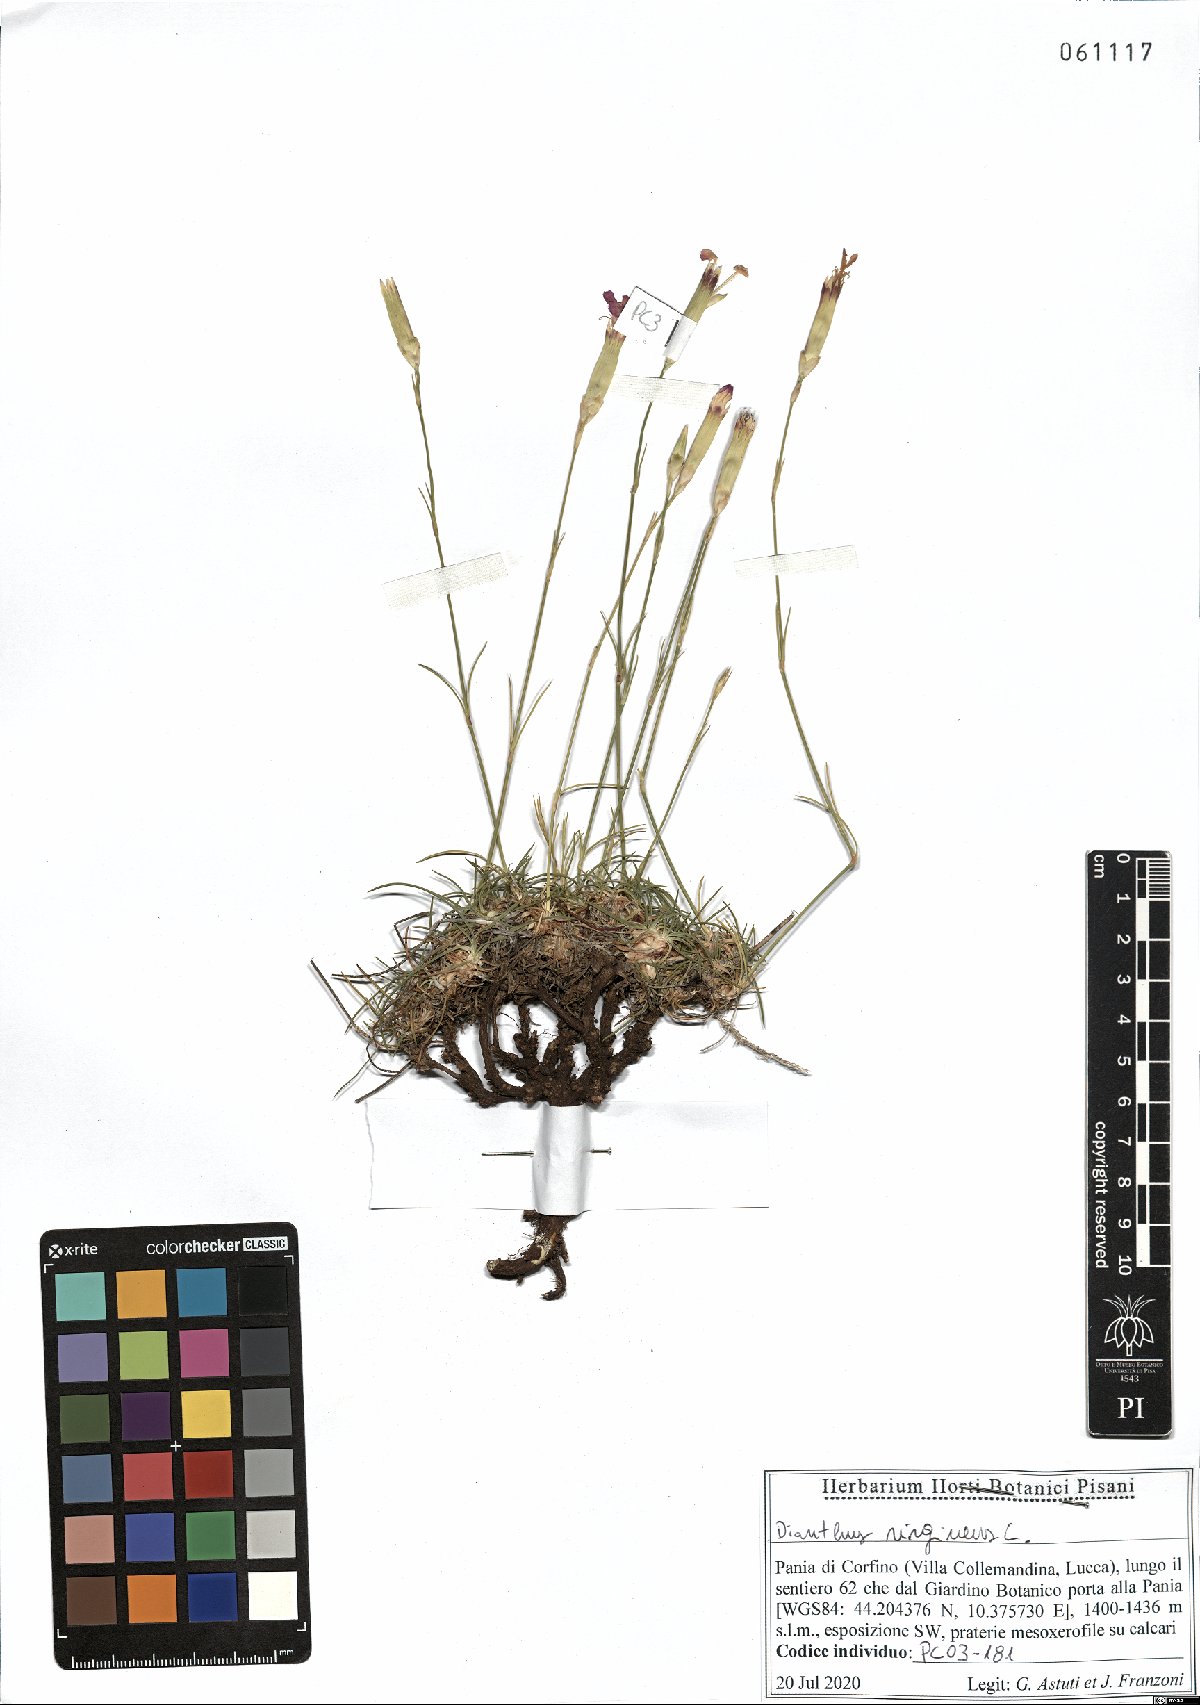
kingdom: Plantae
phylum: Tracheophyta
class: Magnoliopsida
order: Caryophyllales
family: Caryophyllaceae
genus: Dianthus
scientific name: Dianthus virgineus
